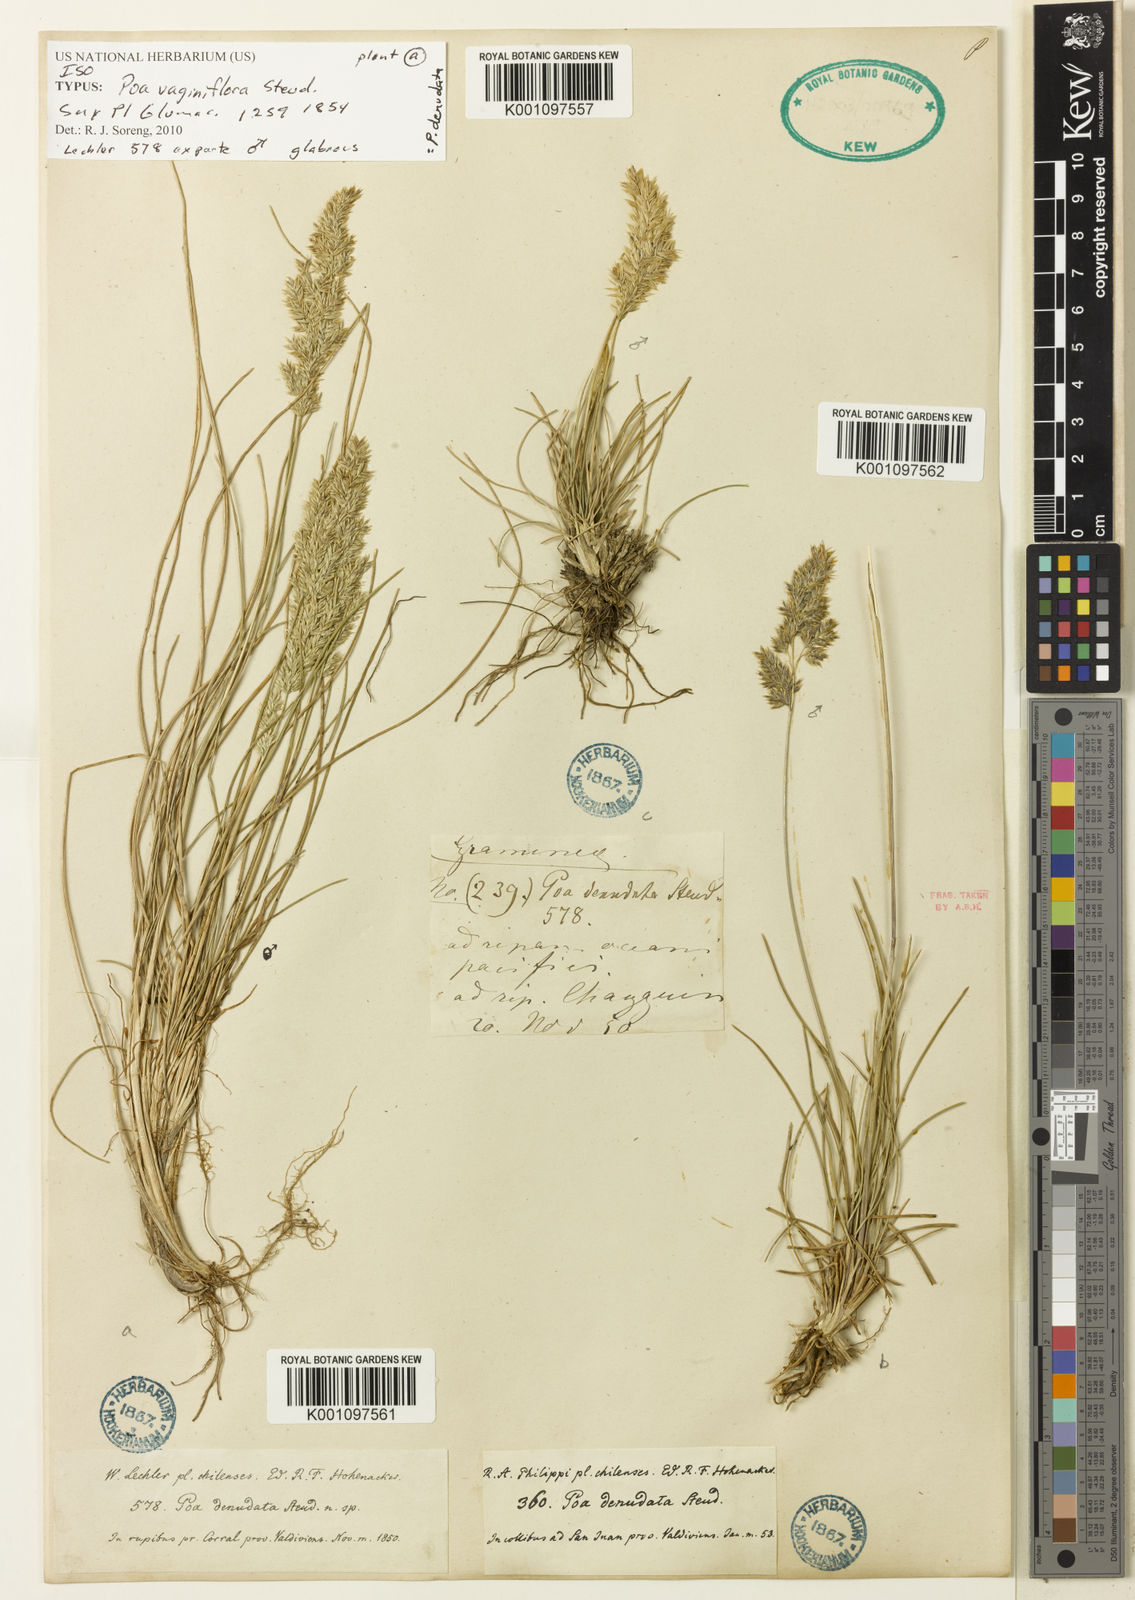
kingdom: Plantae
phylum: Tracheophyta
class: Liliopsida
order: Poales
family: Poaceae
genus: Poa
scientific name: Poa denudata
